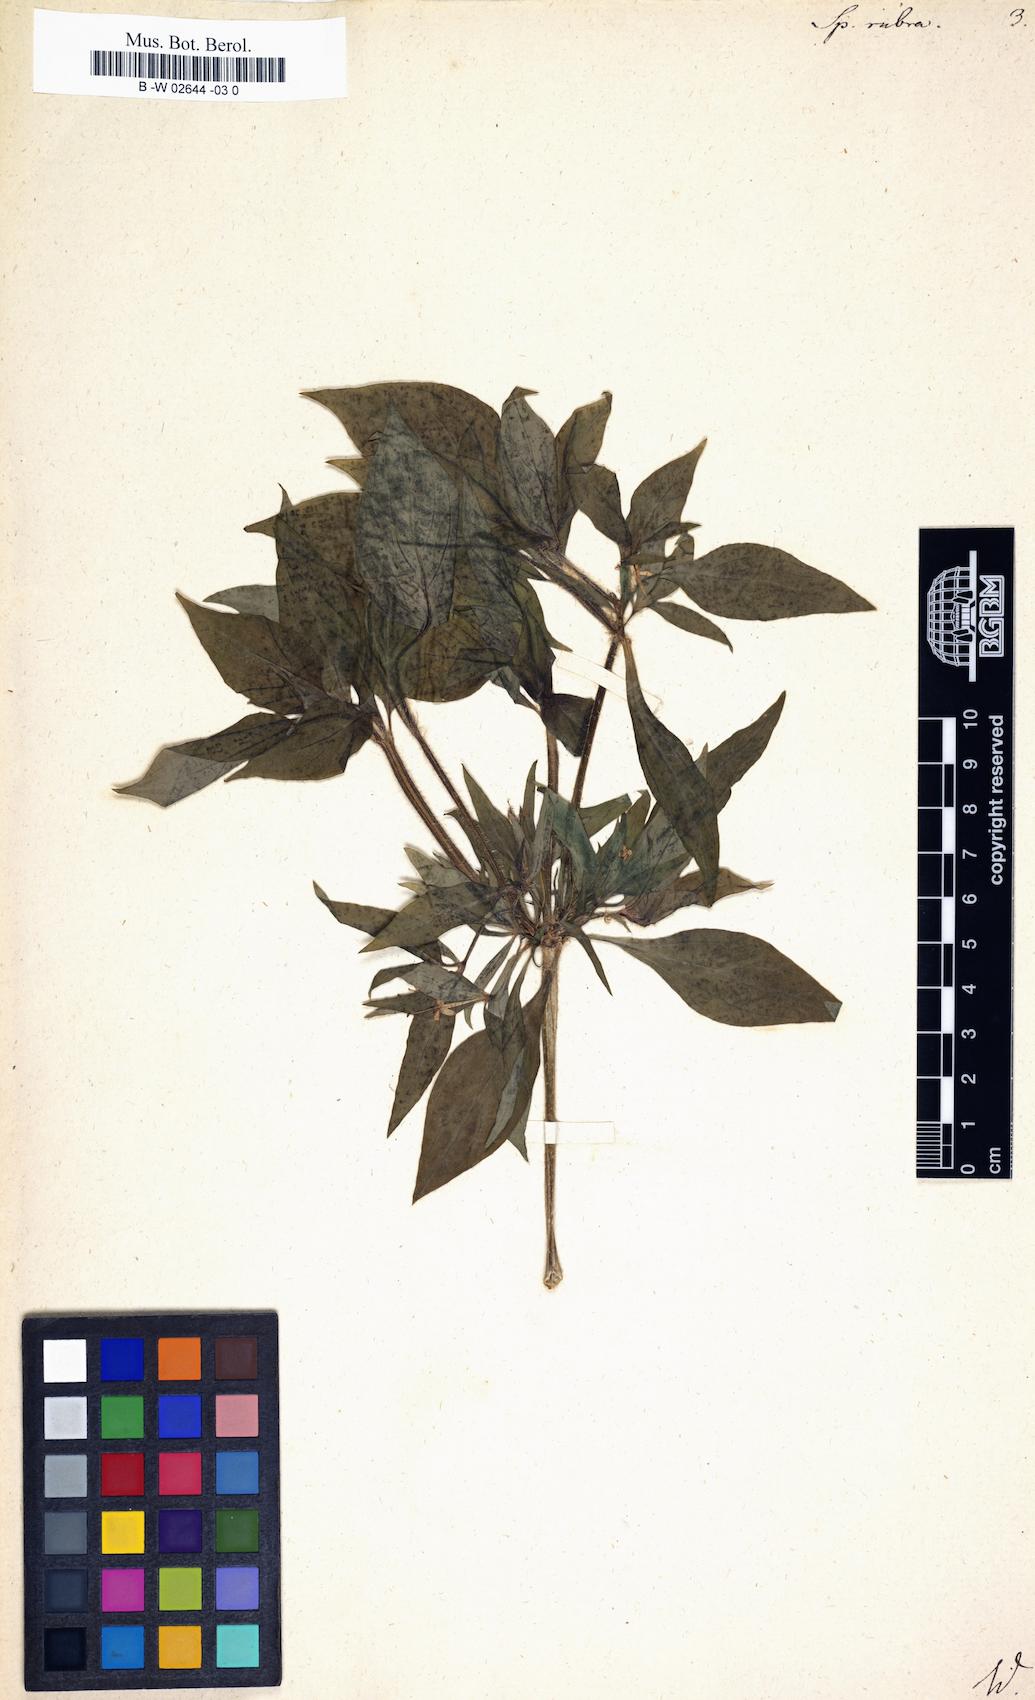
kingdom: Plantae
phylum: Tracheophyta
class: Magnoliopsida
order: Gentianales
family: Rubiaceae
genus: Crusea
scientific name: Crusea hispida
